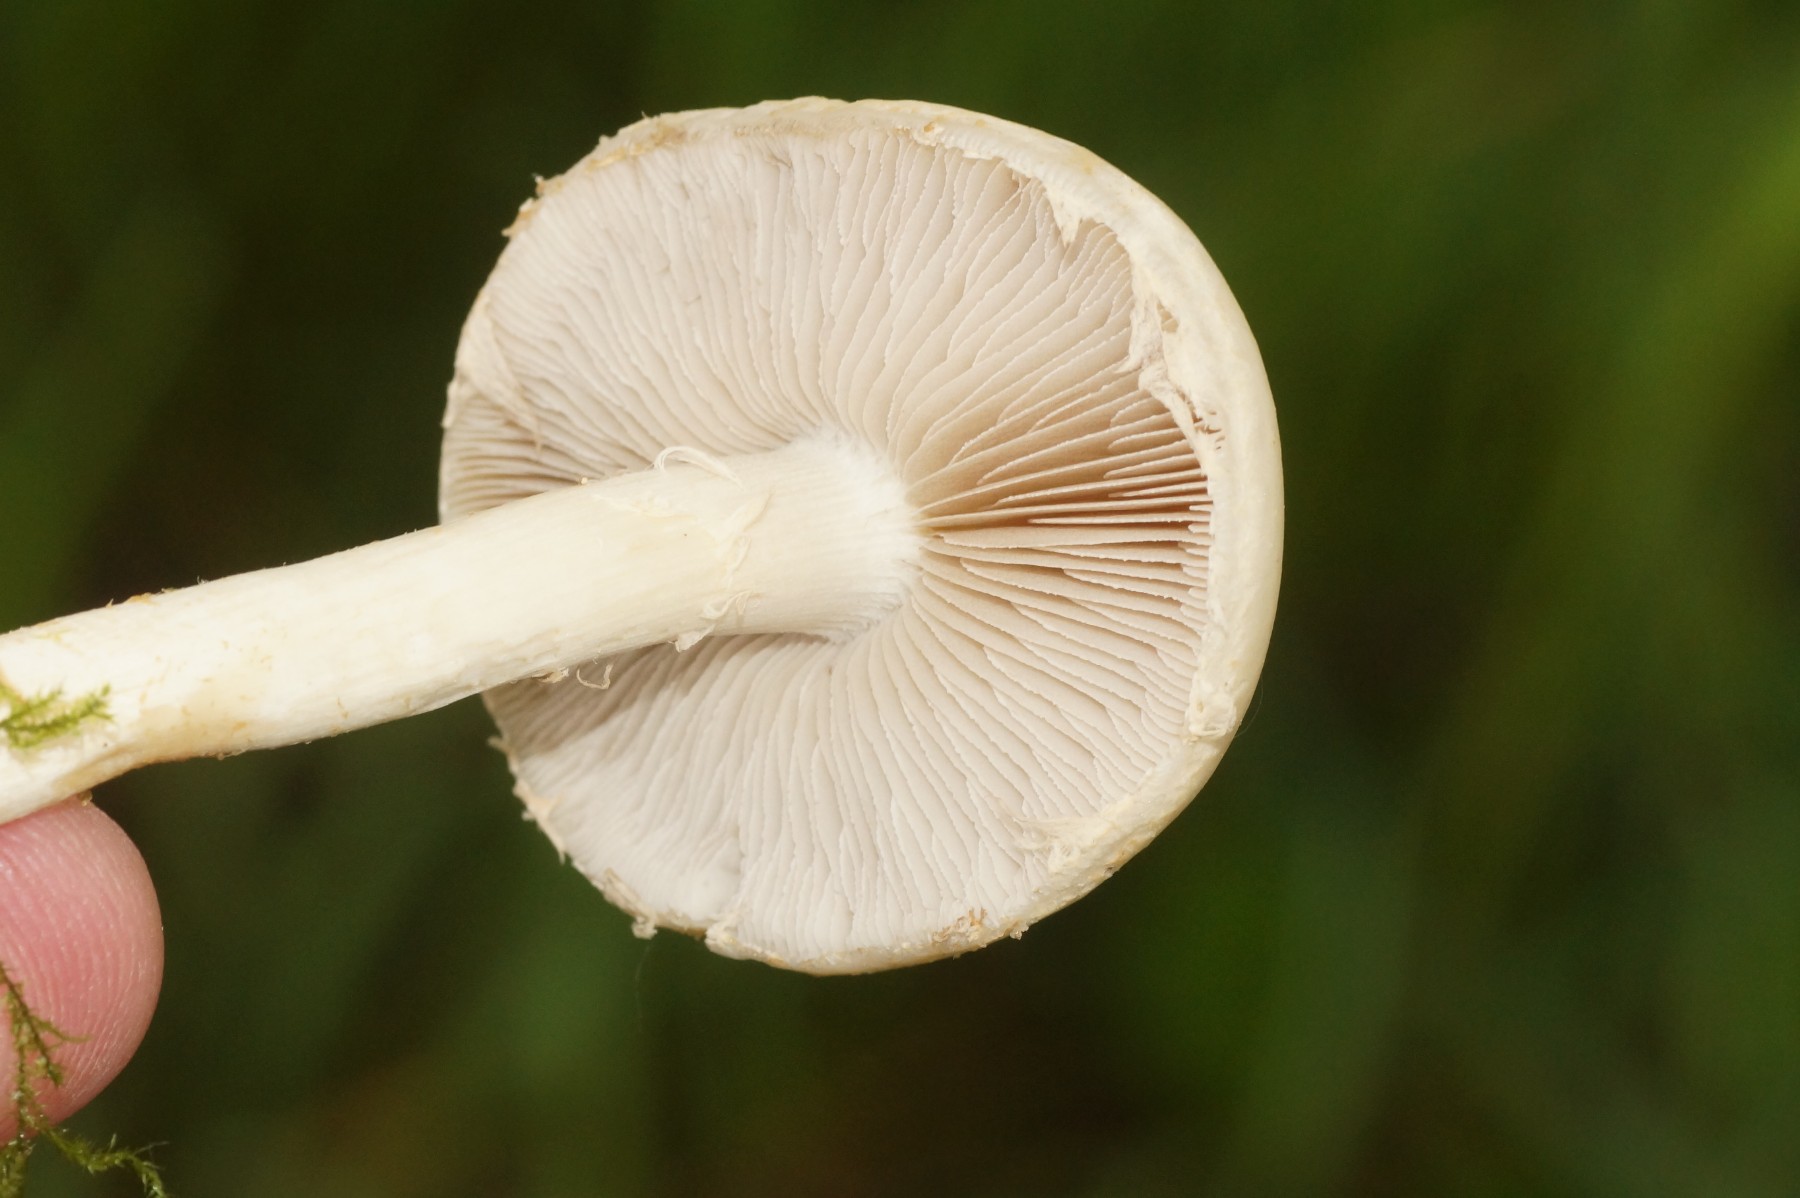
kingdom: Fungi
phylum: Basidiomycota
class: Agaricomycetes
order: Agaricales
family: Strophariaceae
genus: Agrocybe
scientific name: Agrocybe praecox
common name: tidlig agerhat
